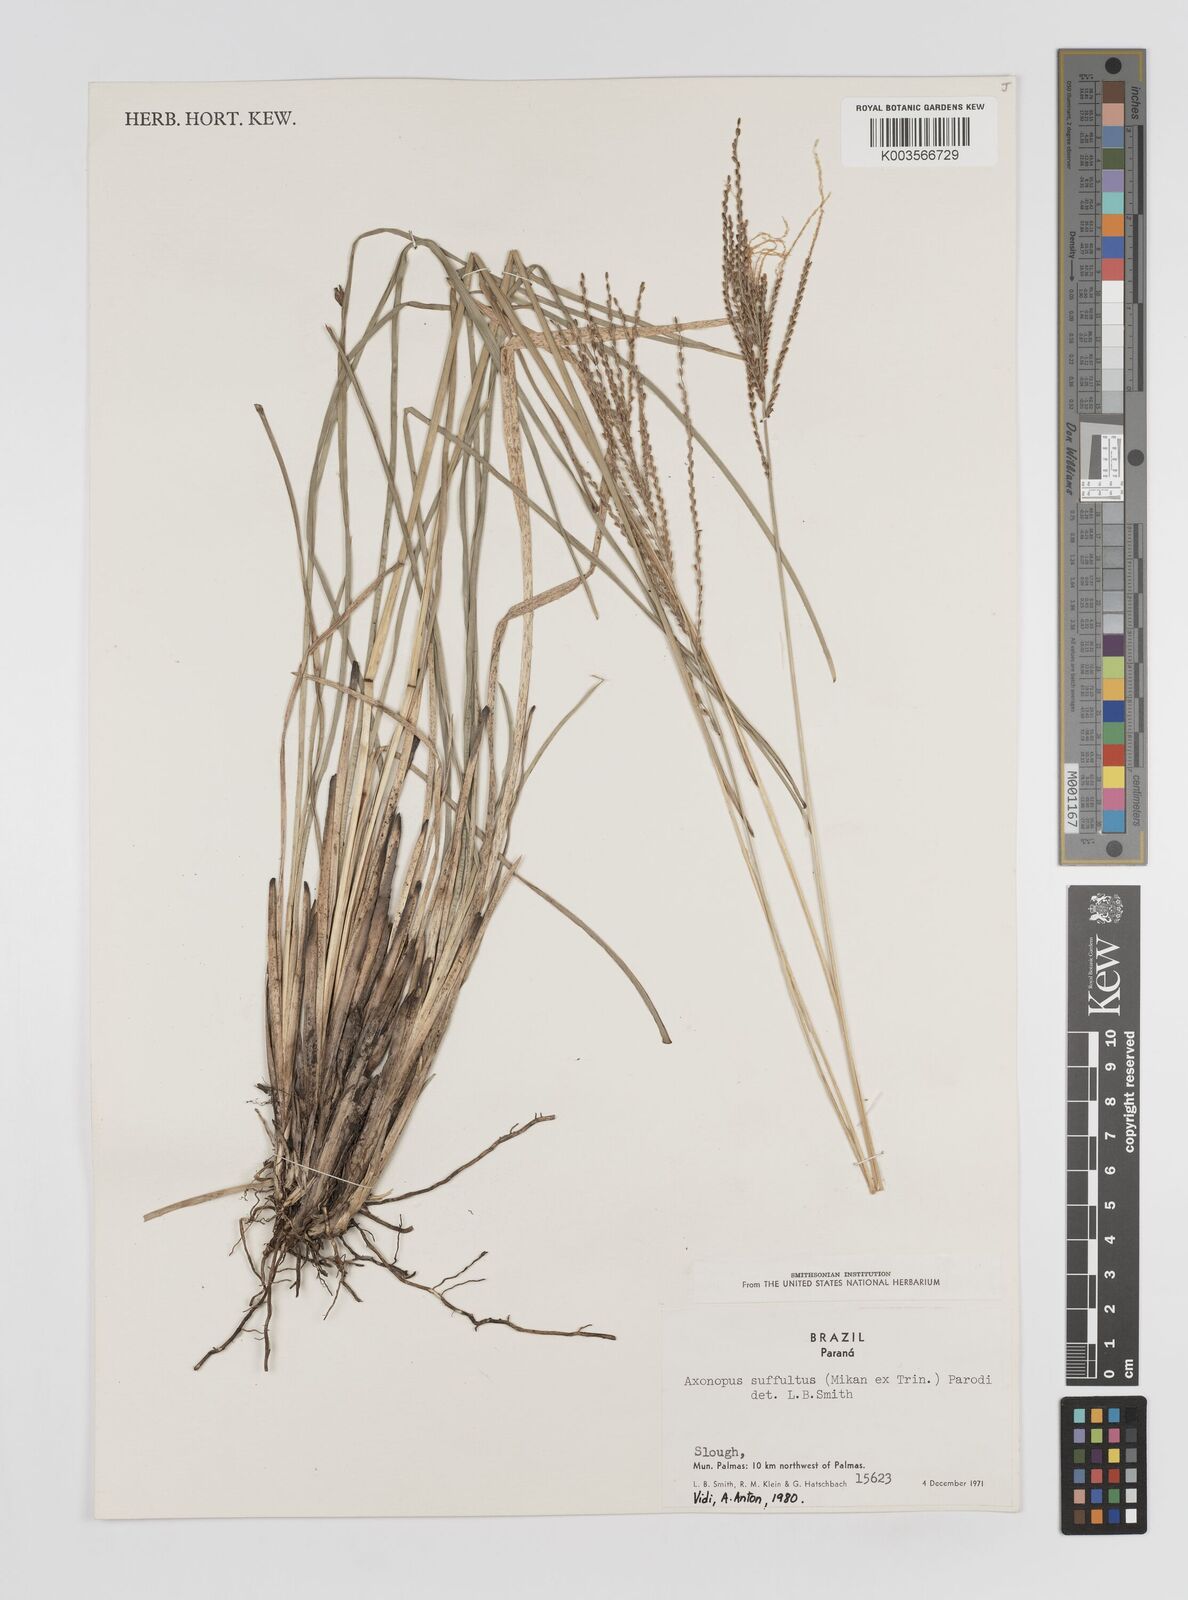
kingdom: Plantae
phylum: Tracheophyta
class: Liliopsida
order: Poales
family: Poaceae
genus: Axonopus
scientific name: Axonopus suffultus
